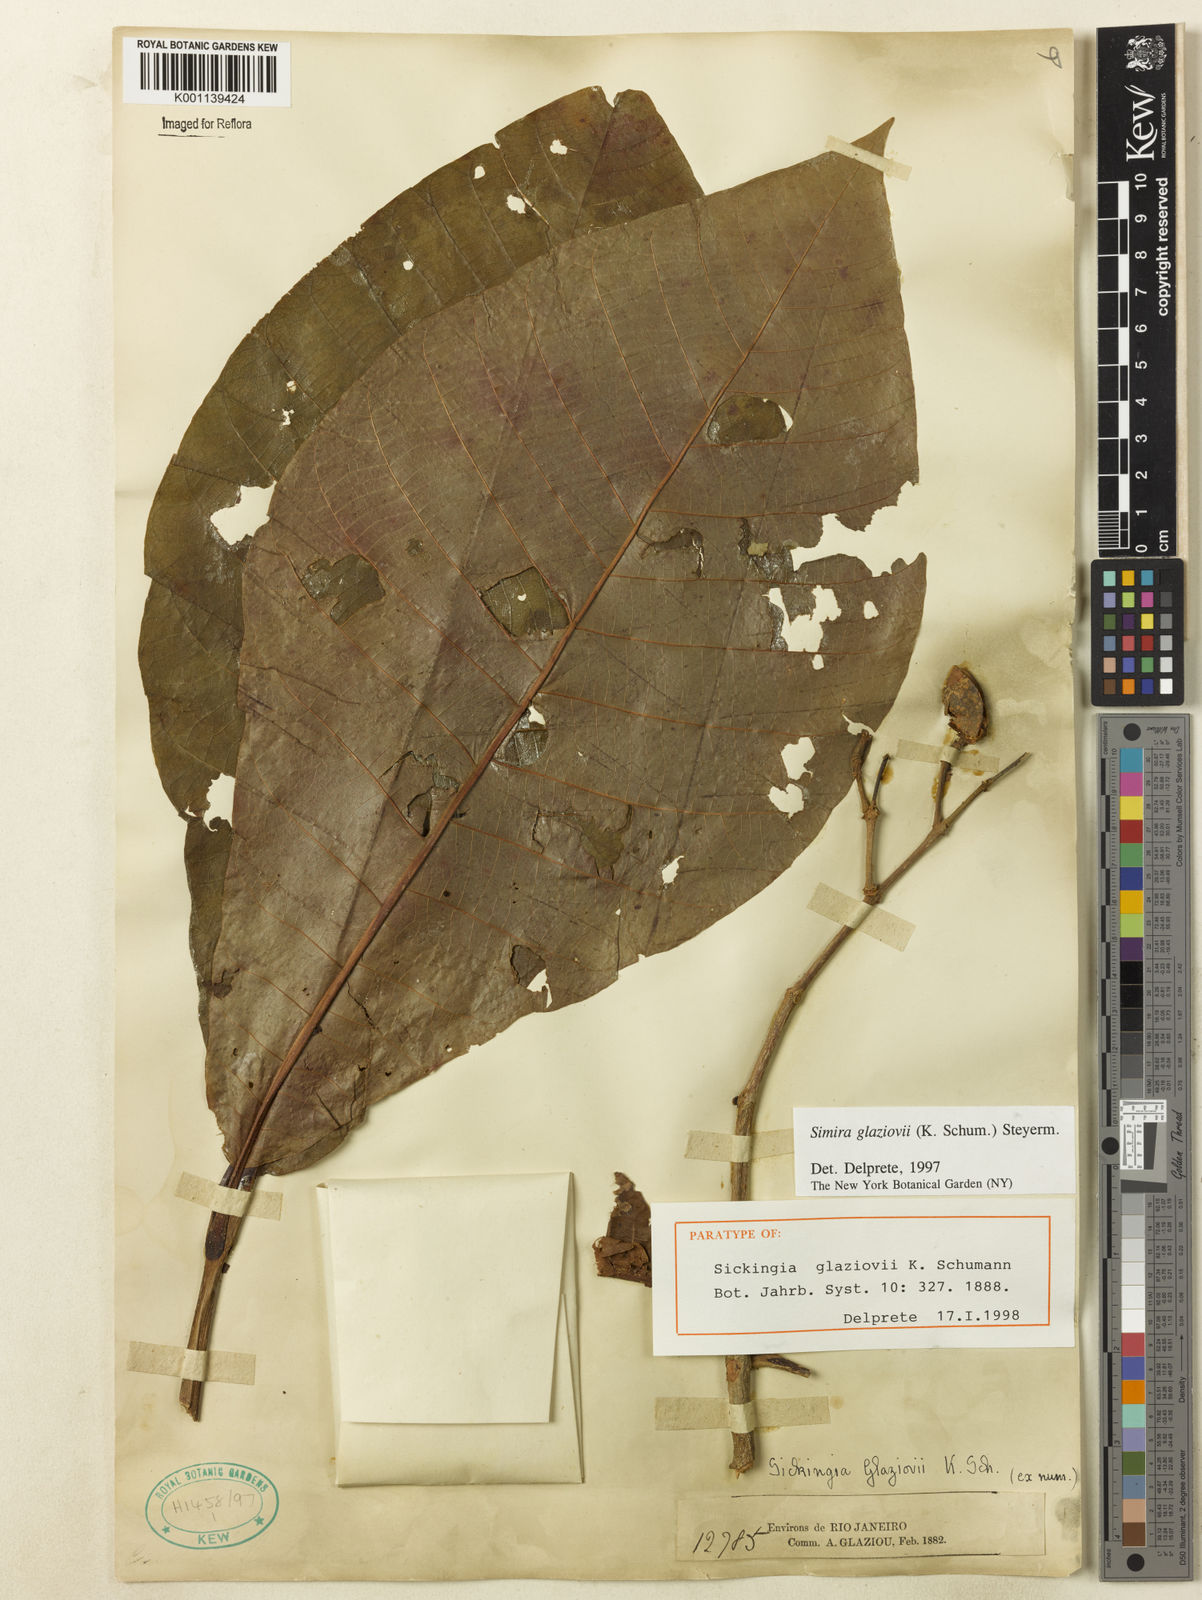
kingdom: Plantae
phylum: Tracheophyta
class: Magnoliopsida
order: Gentianales
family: Rubiaceae
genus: Simira
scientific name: Simira alba
